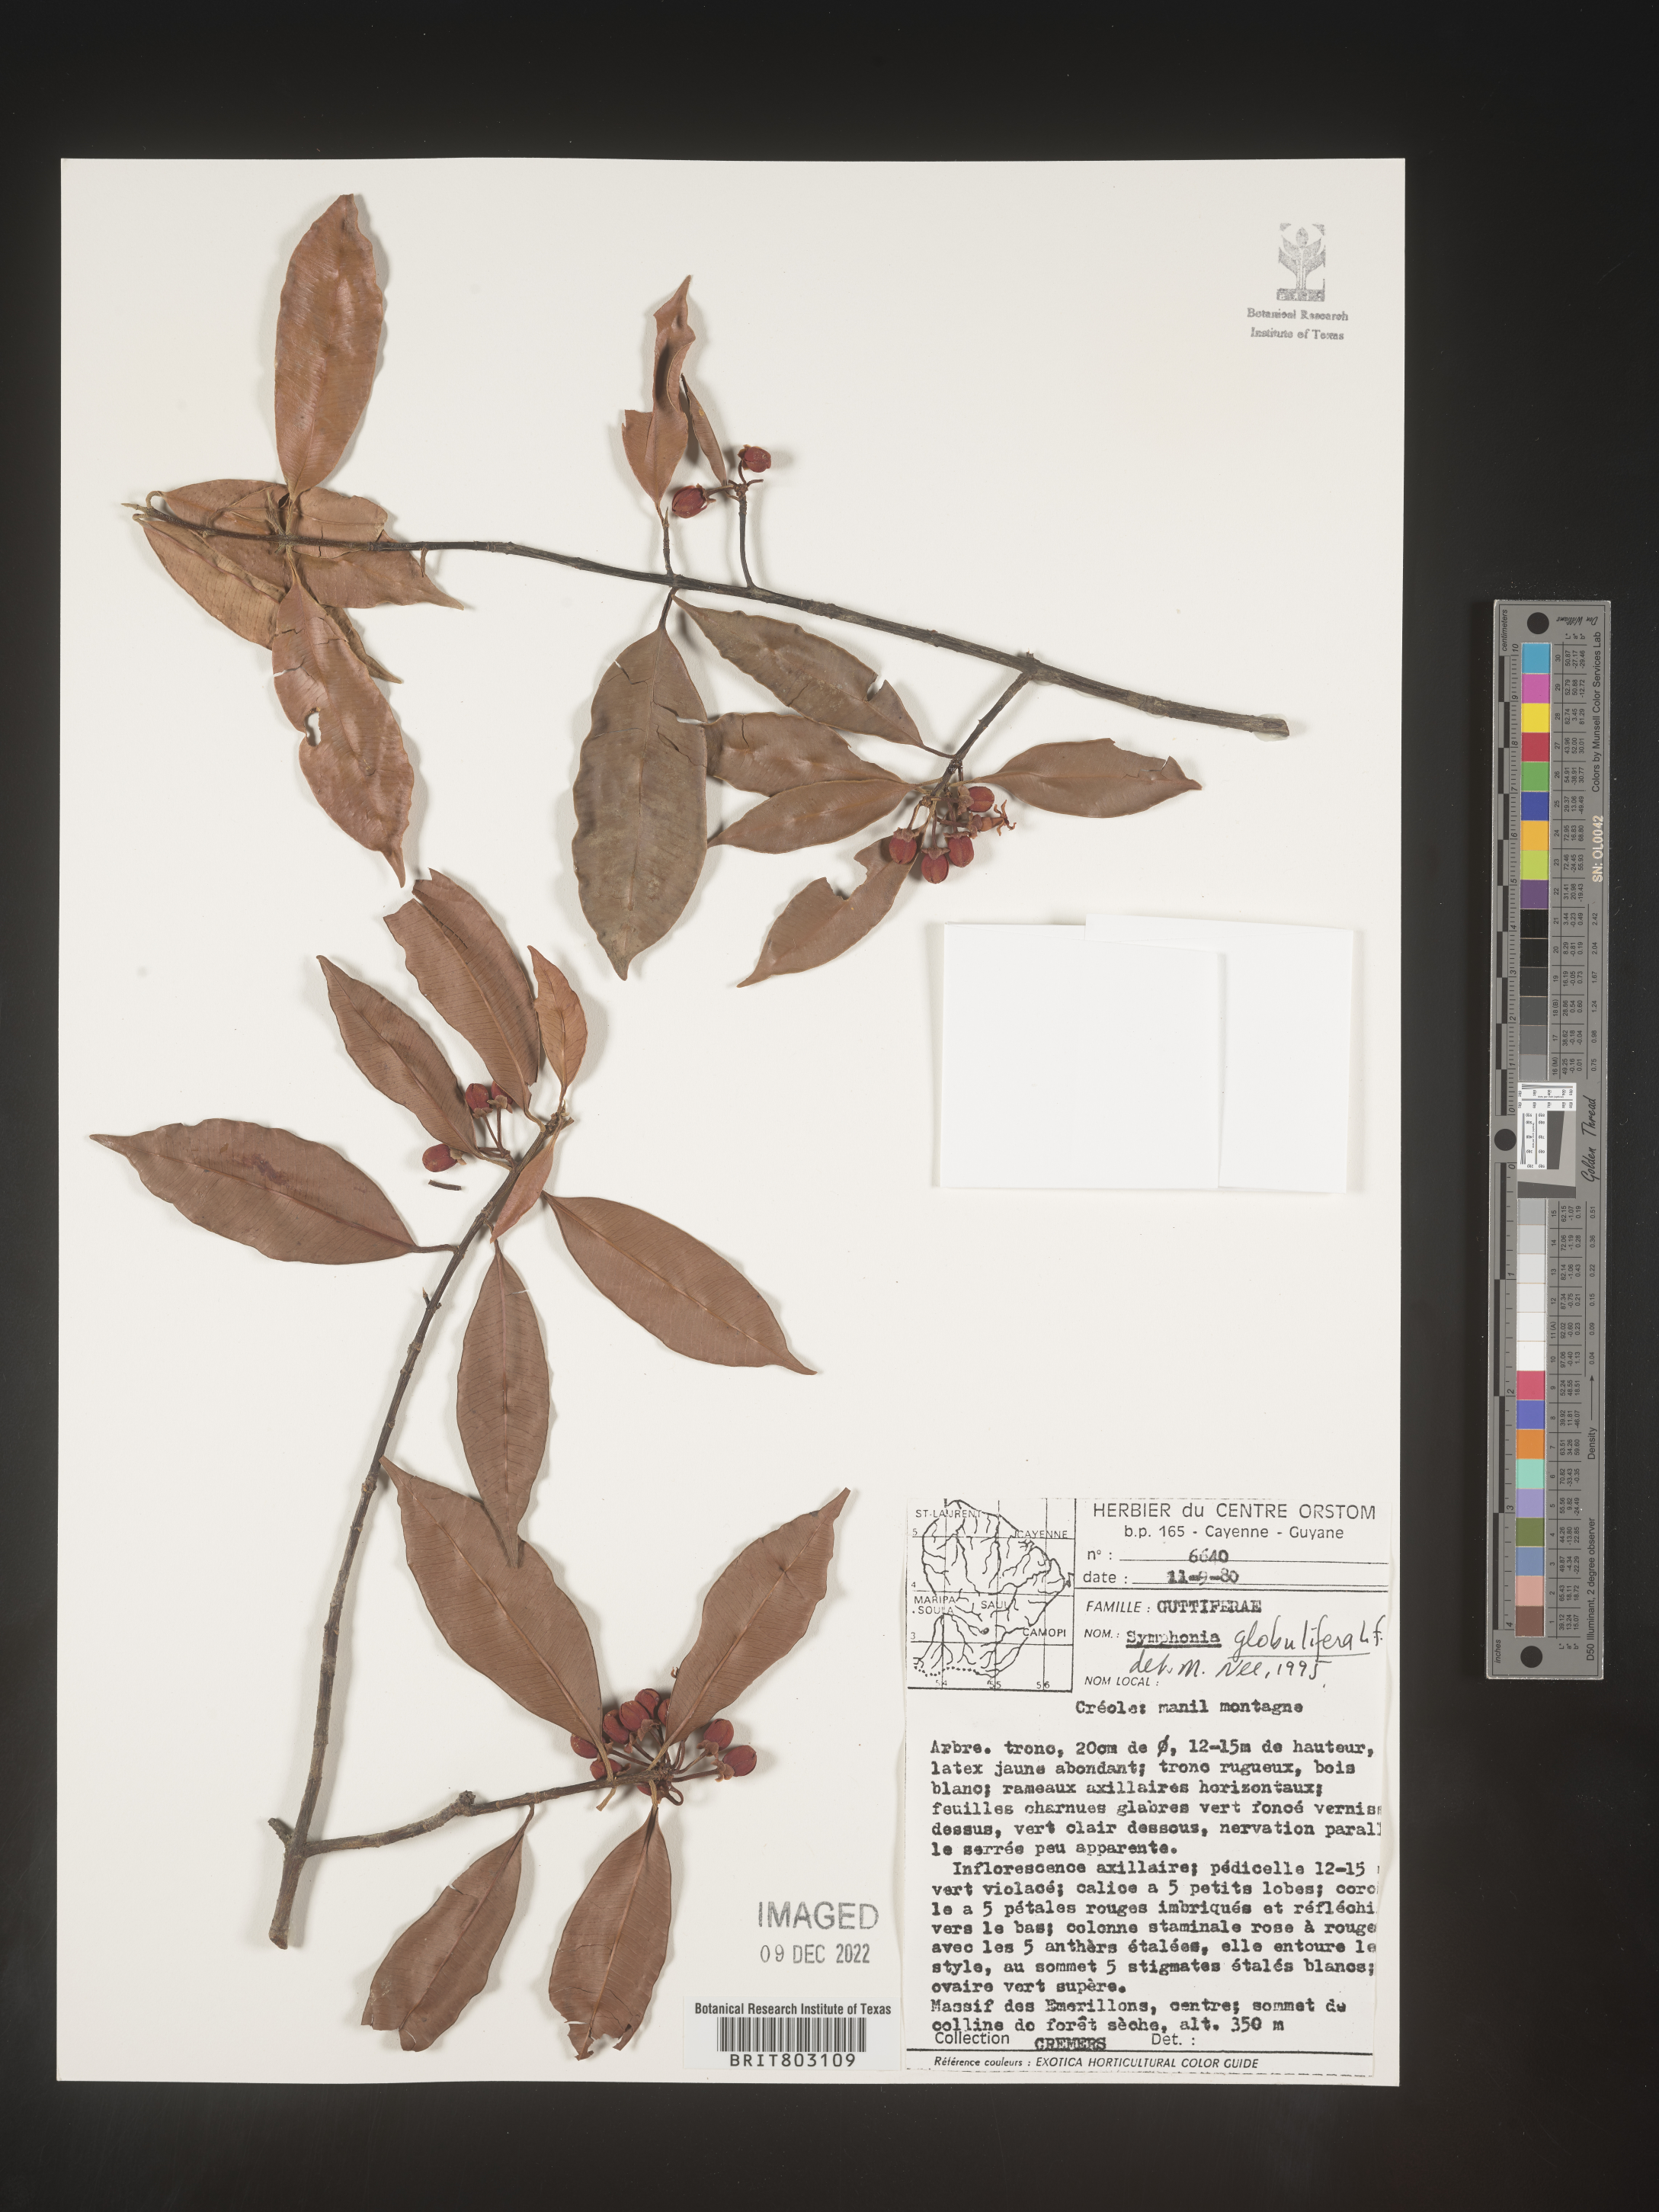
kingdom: Plantae
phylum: Tracheophyta
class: Magnoliopsida
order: Malpighiales
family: Clusiaceae
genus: Symphonia
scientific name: Symphonia
